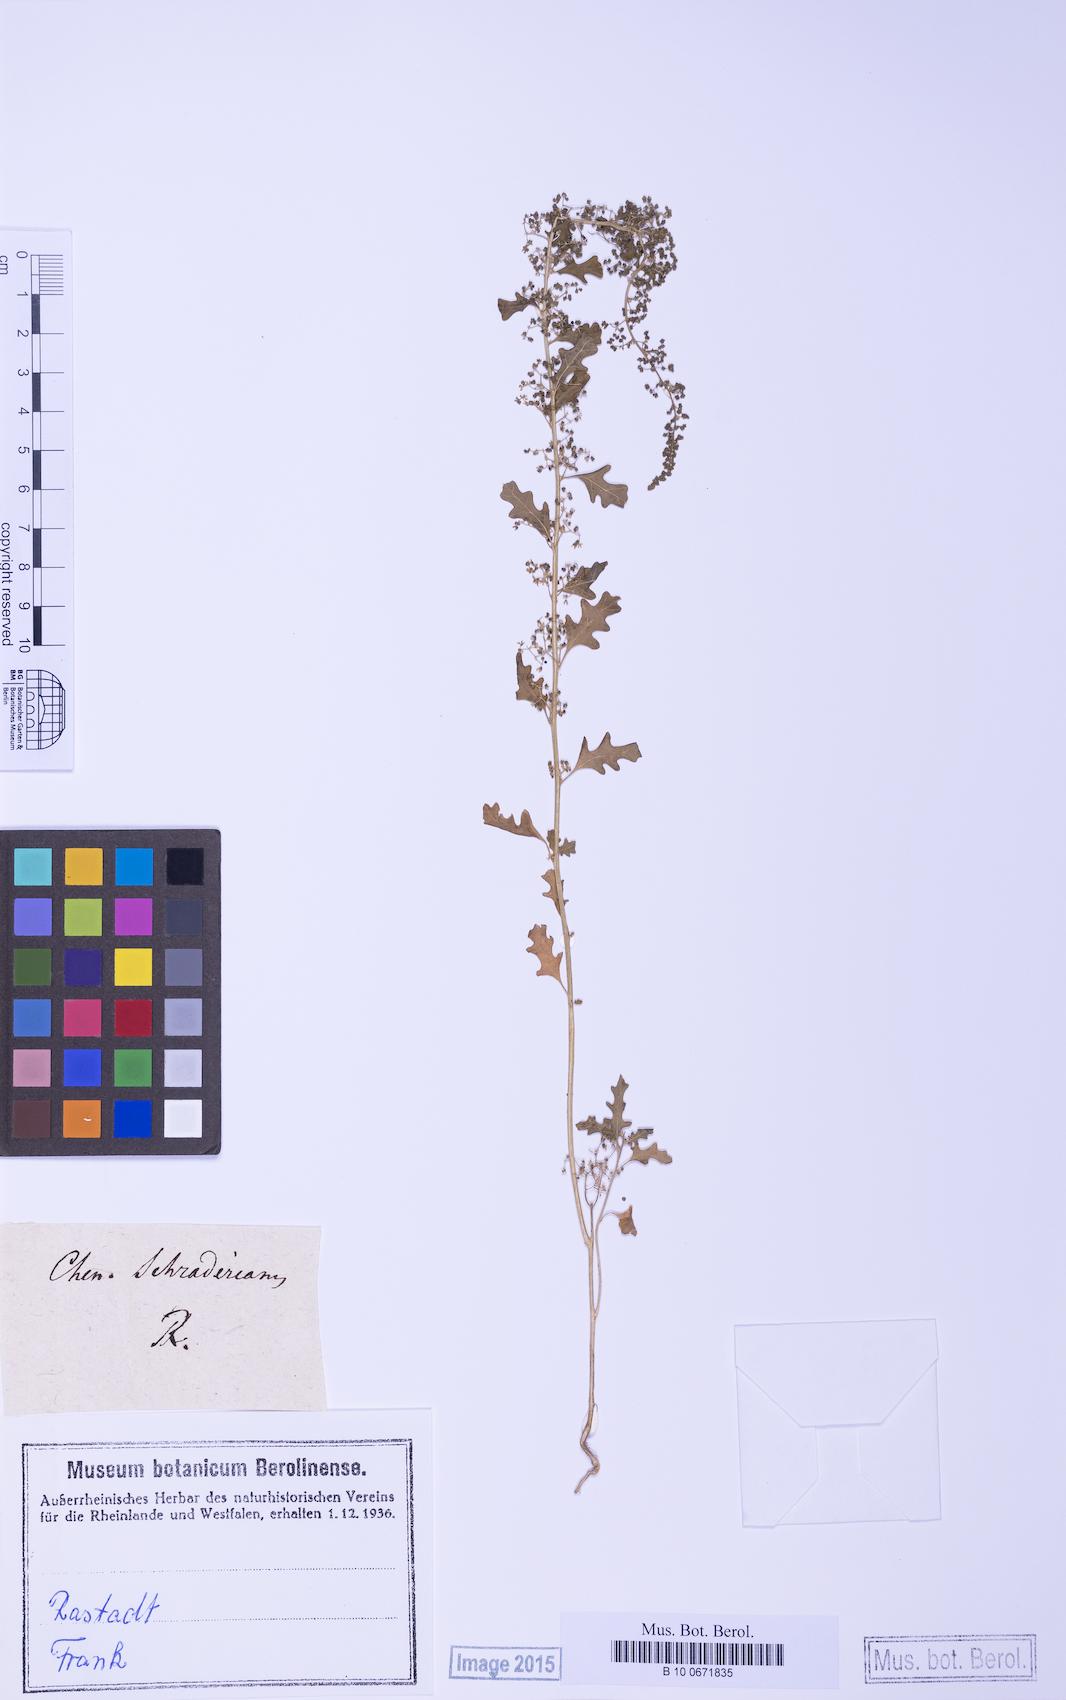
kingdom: Plantae
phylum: Tracheophyta
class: Magnoliopsida
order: Caryophyllales
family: Amaranthaceae
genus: Dysphania
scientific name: Dysphania schraderiana
